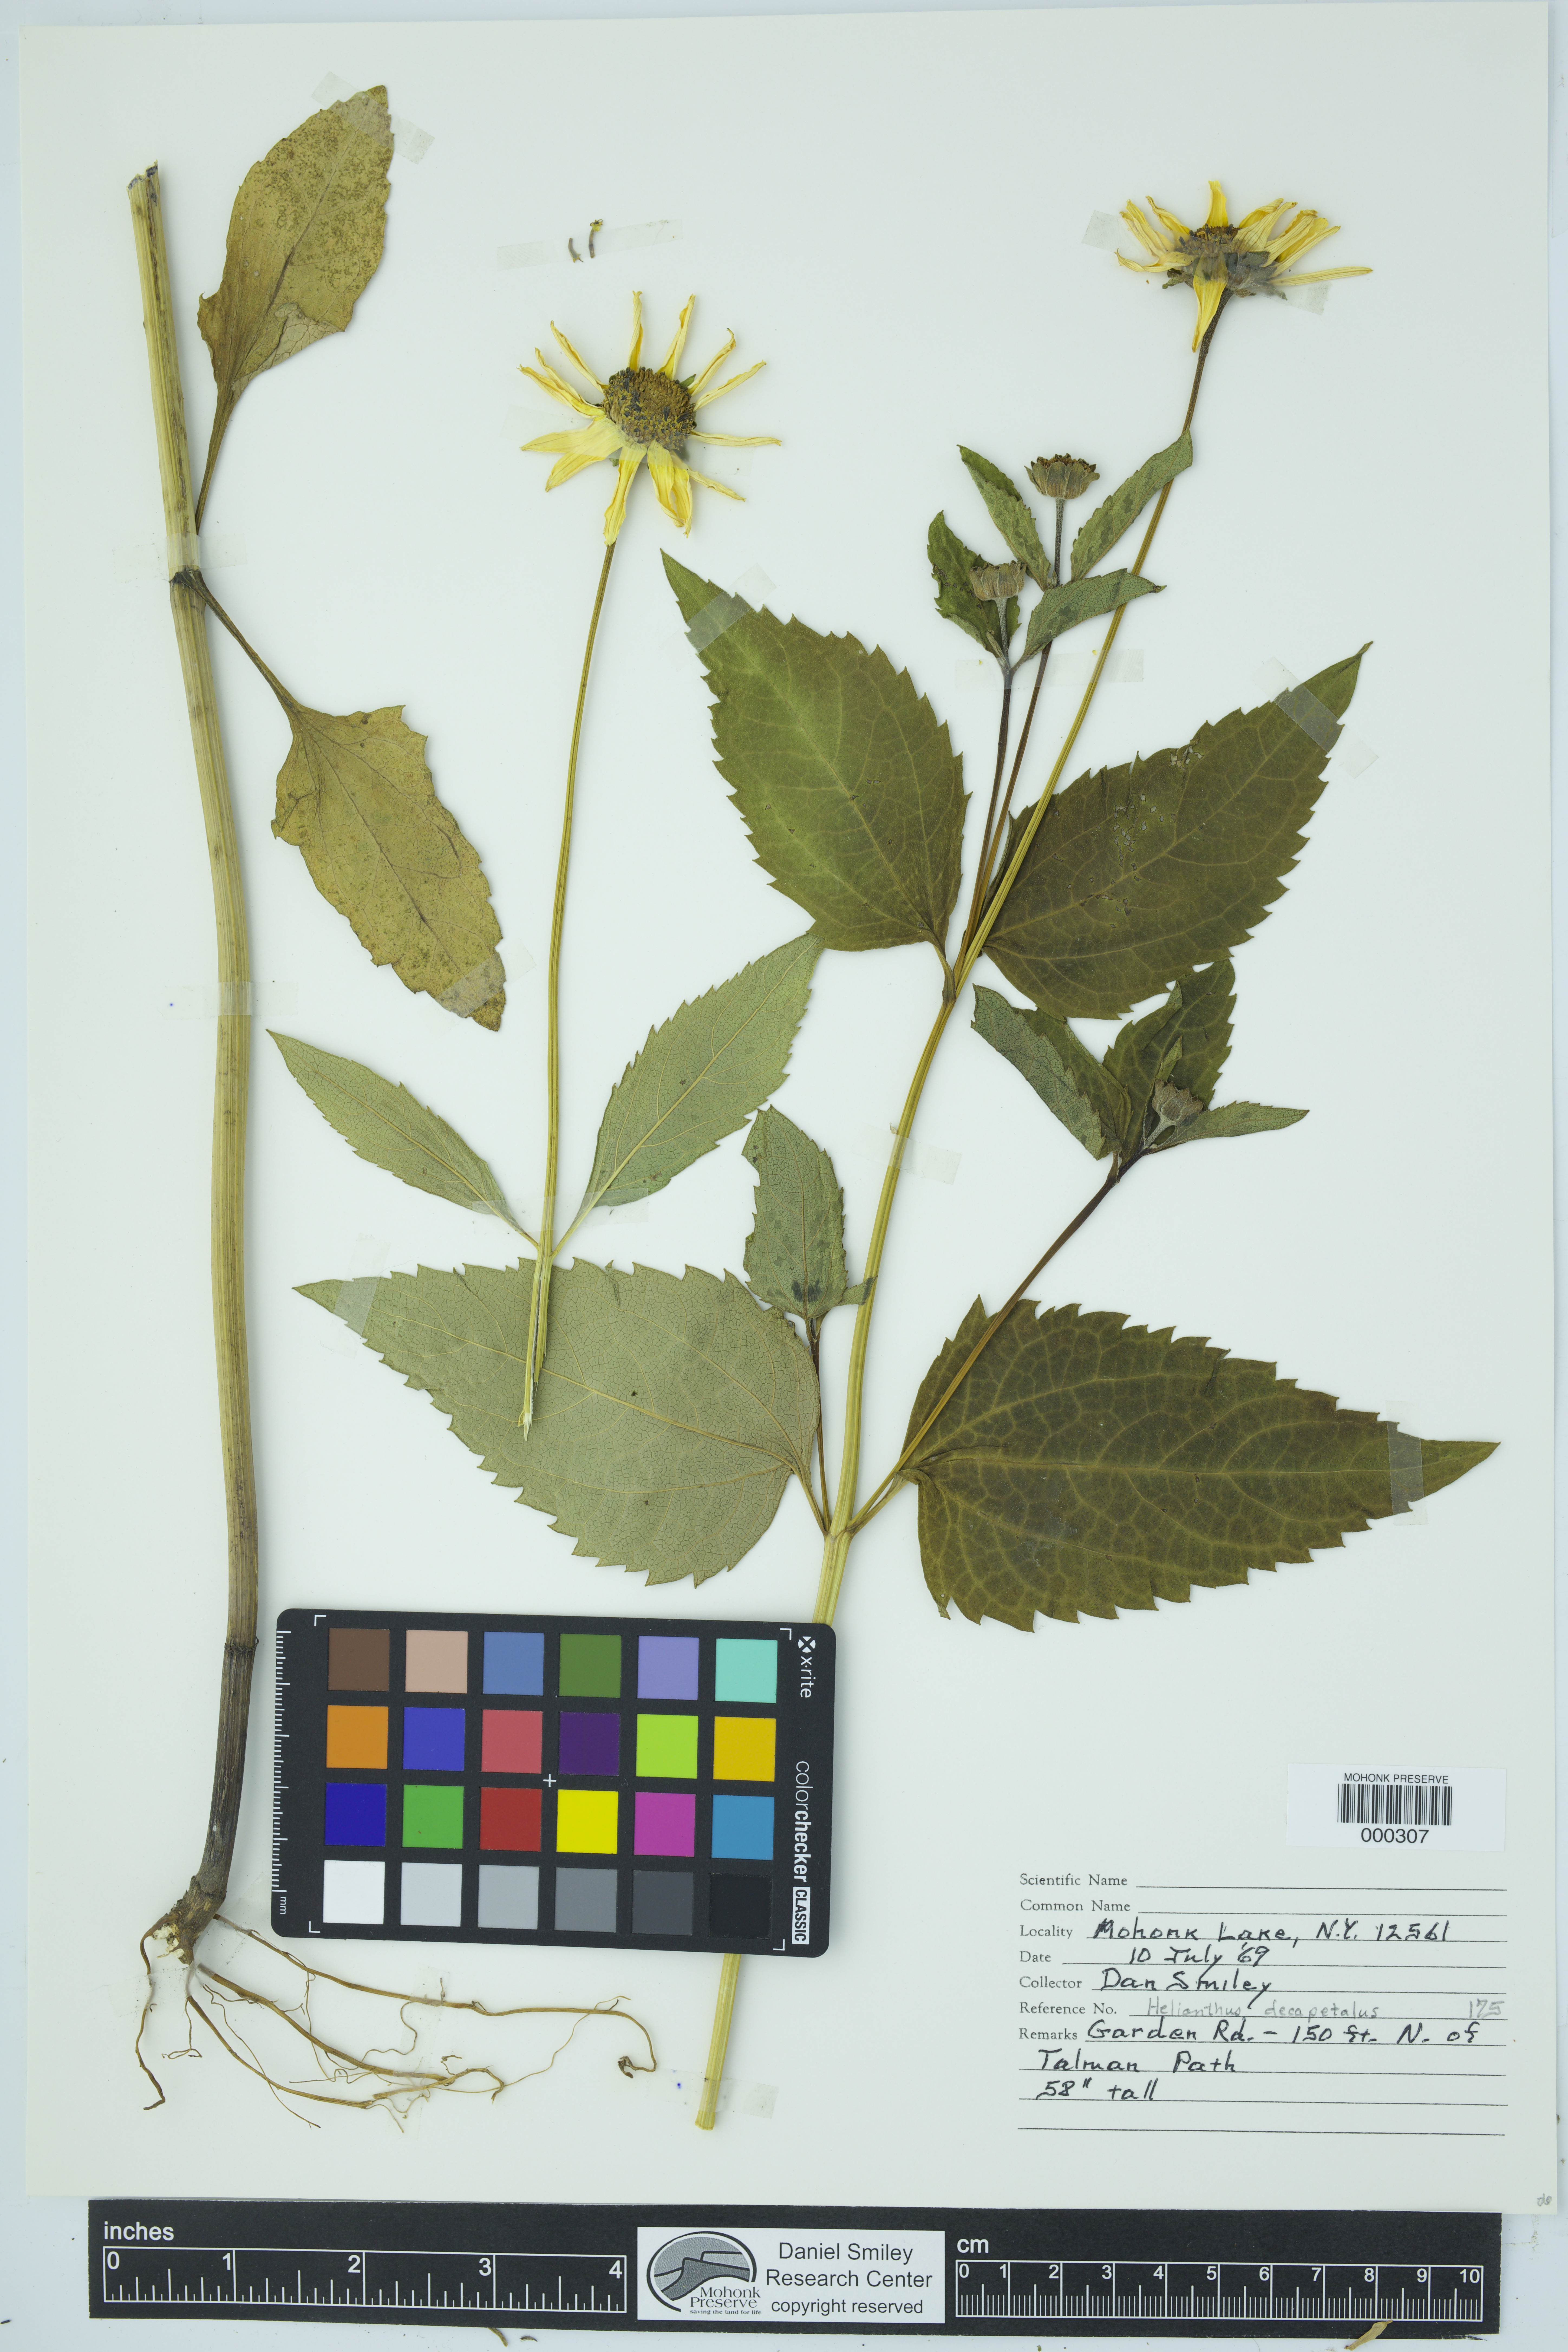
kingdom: Plantae
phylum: Tracheophyta
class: Magnoliopsida
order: Asterales
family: Asteraceae
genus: Helianthus
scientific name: Helianthus decapetalus
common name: Thin-leaved sunflower
